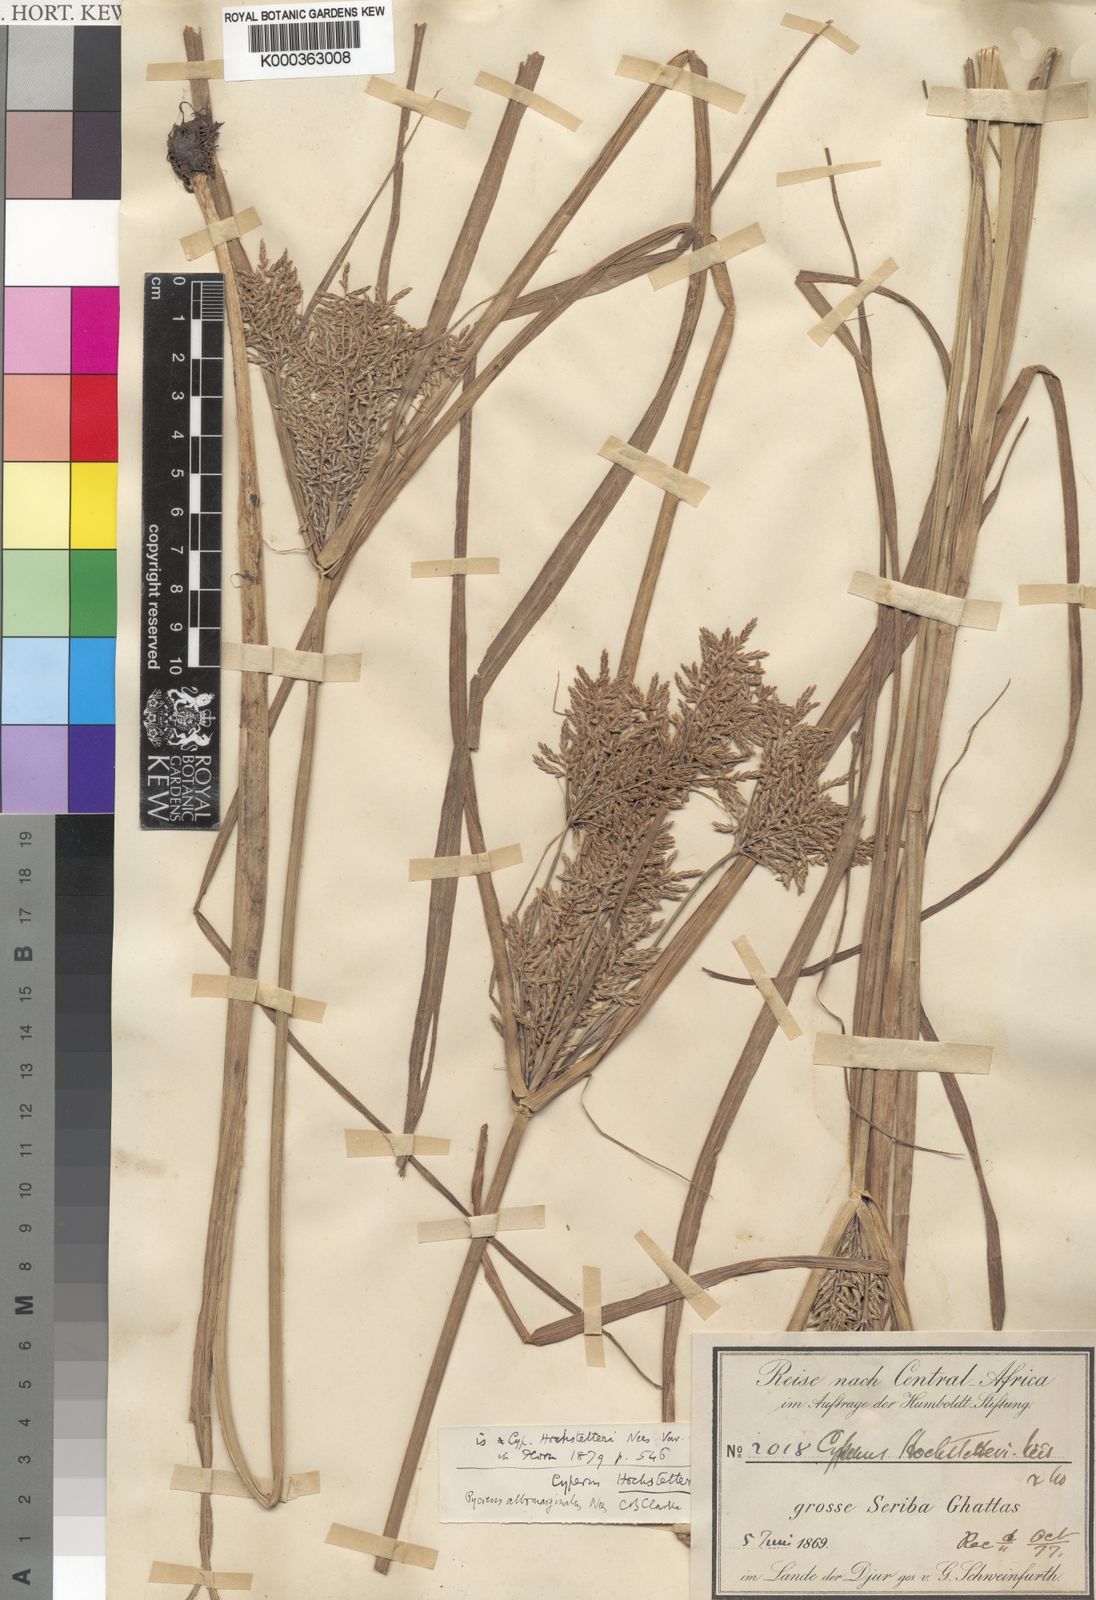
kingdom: Plantae
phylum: Tracheophyta
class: Liliopsida
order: Poales
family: Cyperaceae
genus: Cyperus
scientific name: Cyperus macrostachyos
